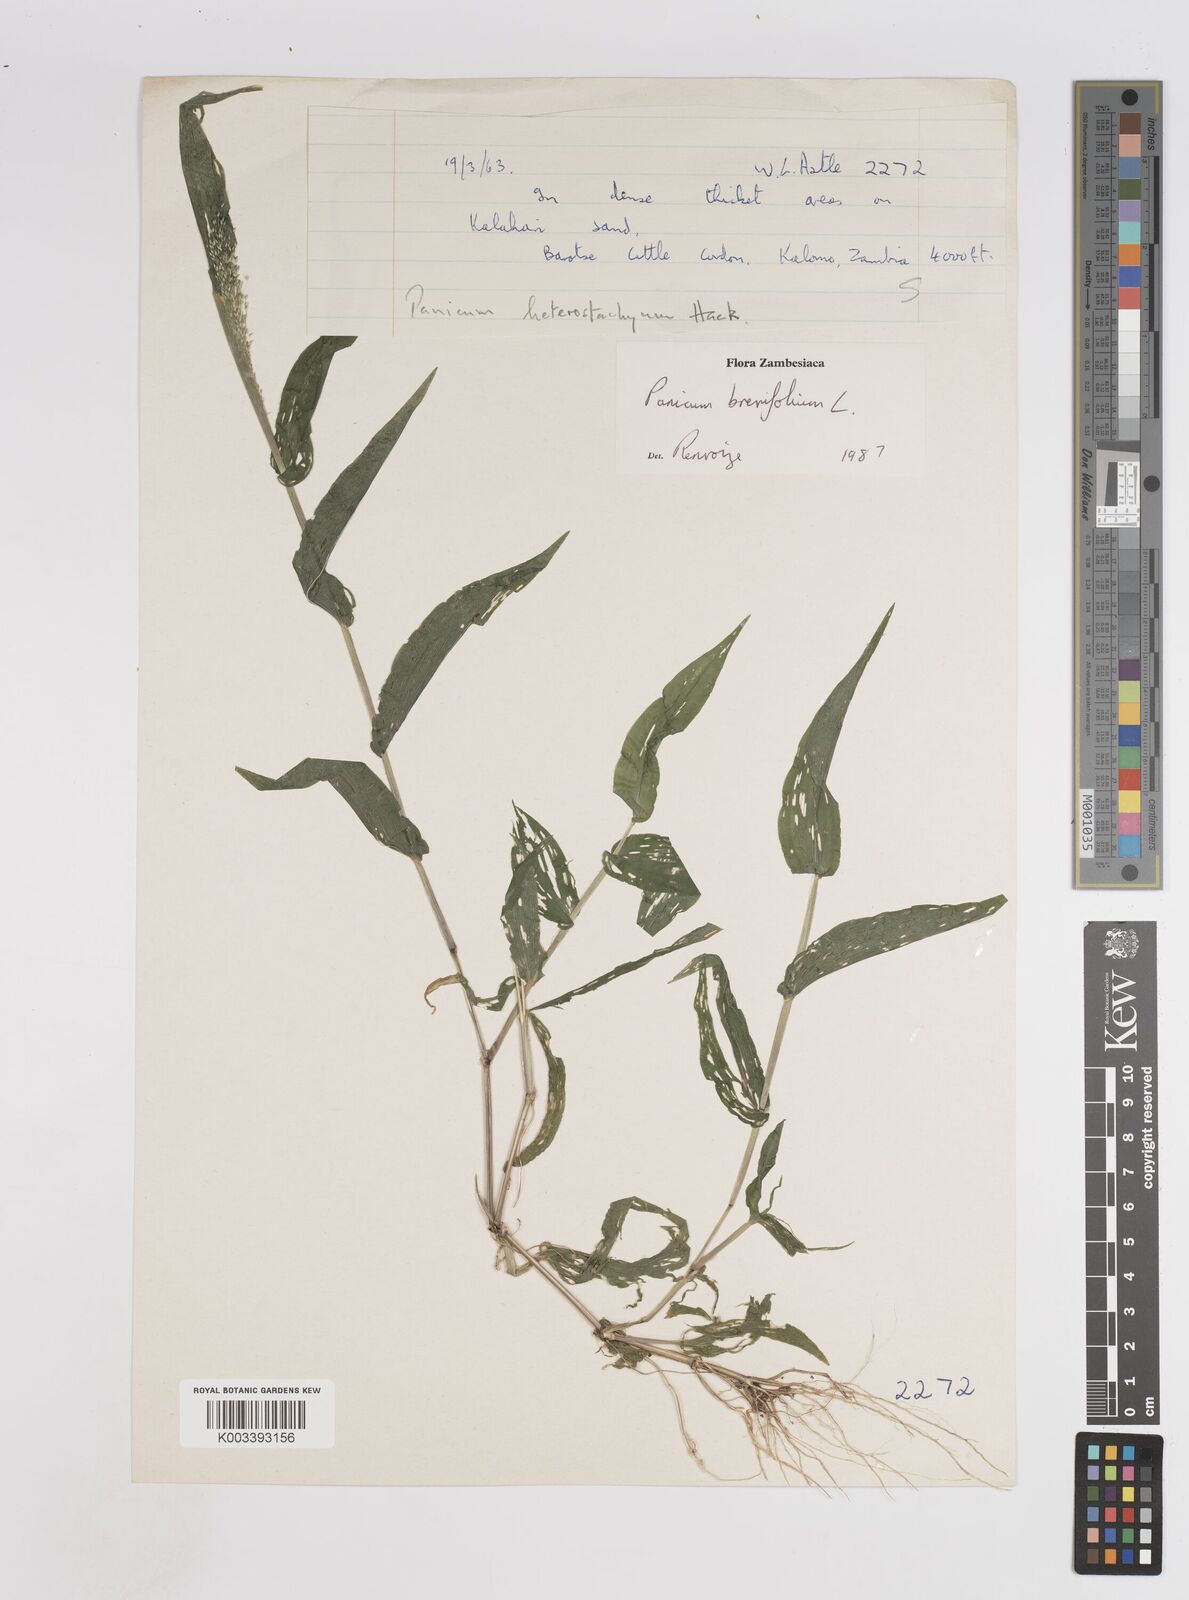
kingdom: Plantae
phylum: Tracheophyta
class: Liliopsida
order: Poales
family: Poaceae
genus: Panicum
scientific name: Panicum brevifolium
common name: Shortleaf panic grass
